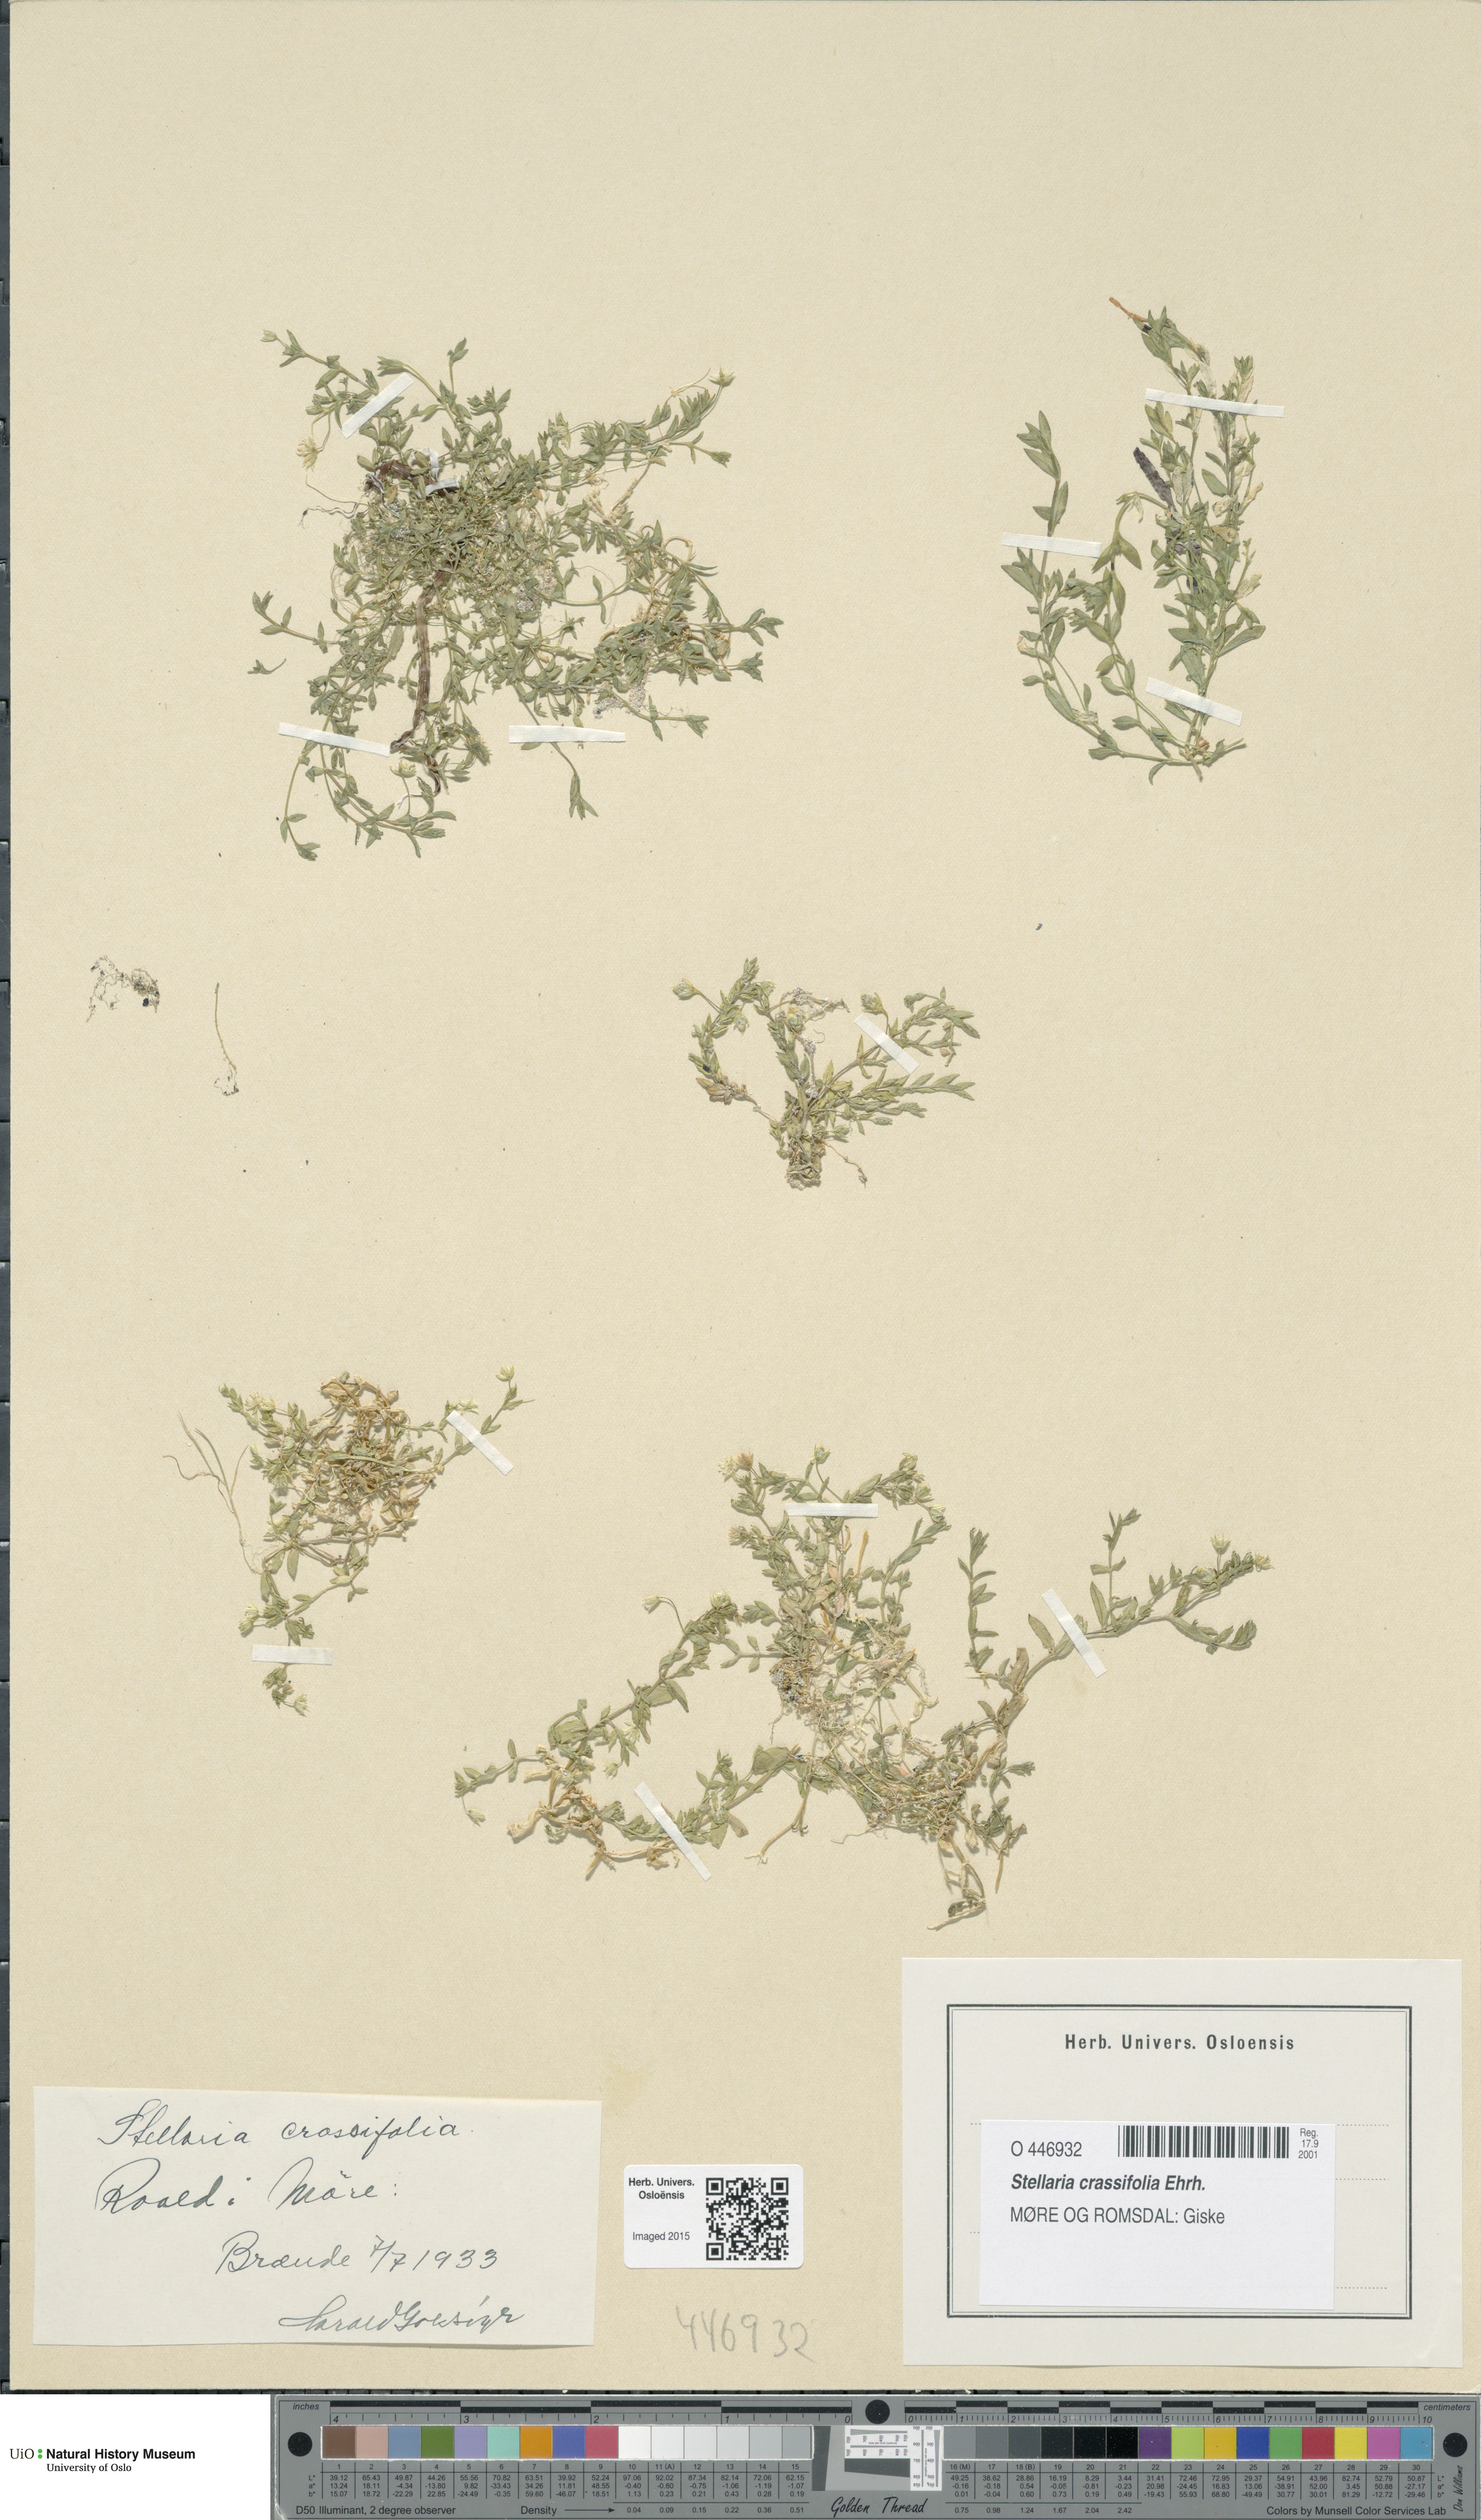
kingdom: Plantae
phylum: Tracheophyta
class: Magnoliopsida
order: Caryophyllales
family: Caryophyllaceae
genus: Stellaria
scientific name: Stellaria crassifolia
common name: Fleshy starwort
